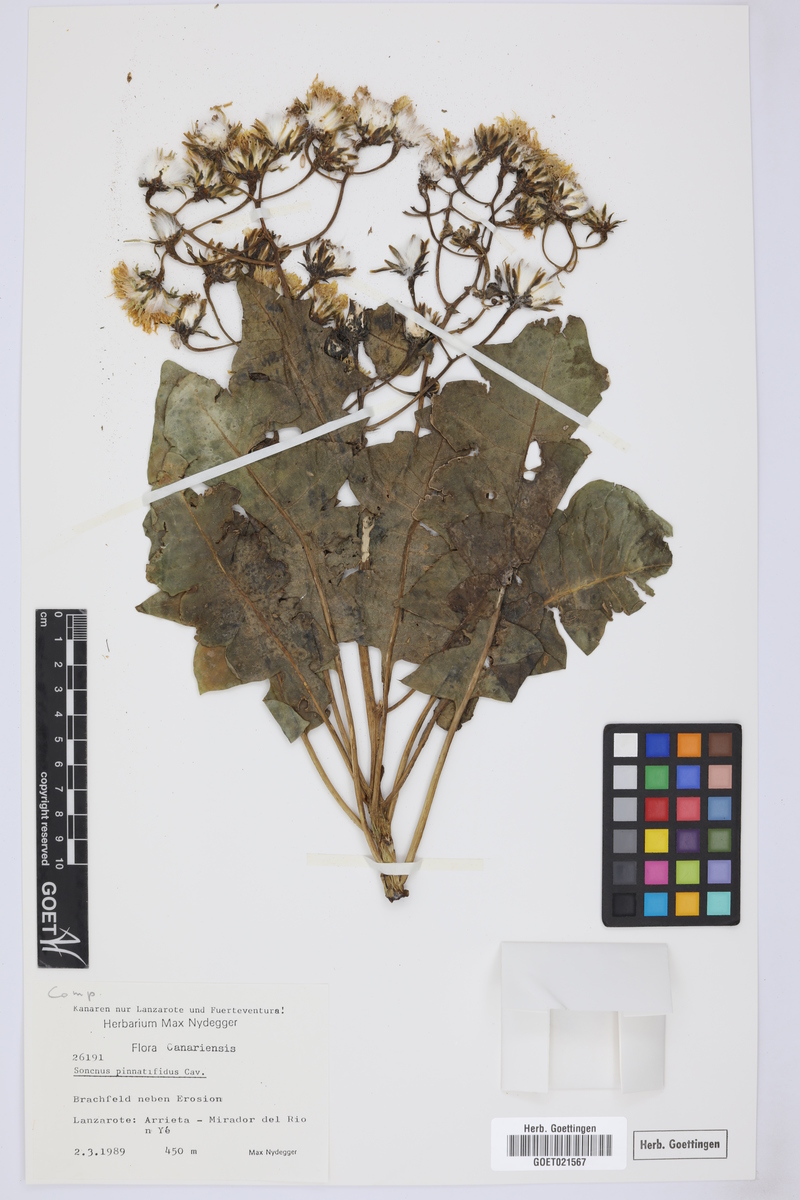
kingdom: Plantae
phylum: Tracheophyta
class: Magnoliopsida
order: Asterales
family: Asteraceae
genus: Sonchus
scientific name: Sonchus pinnatifidus
